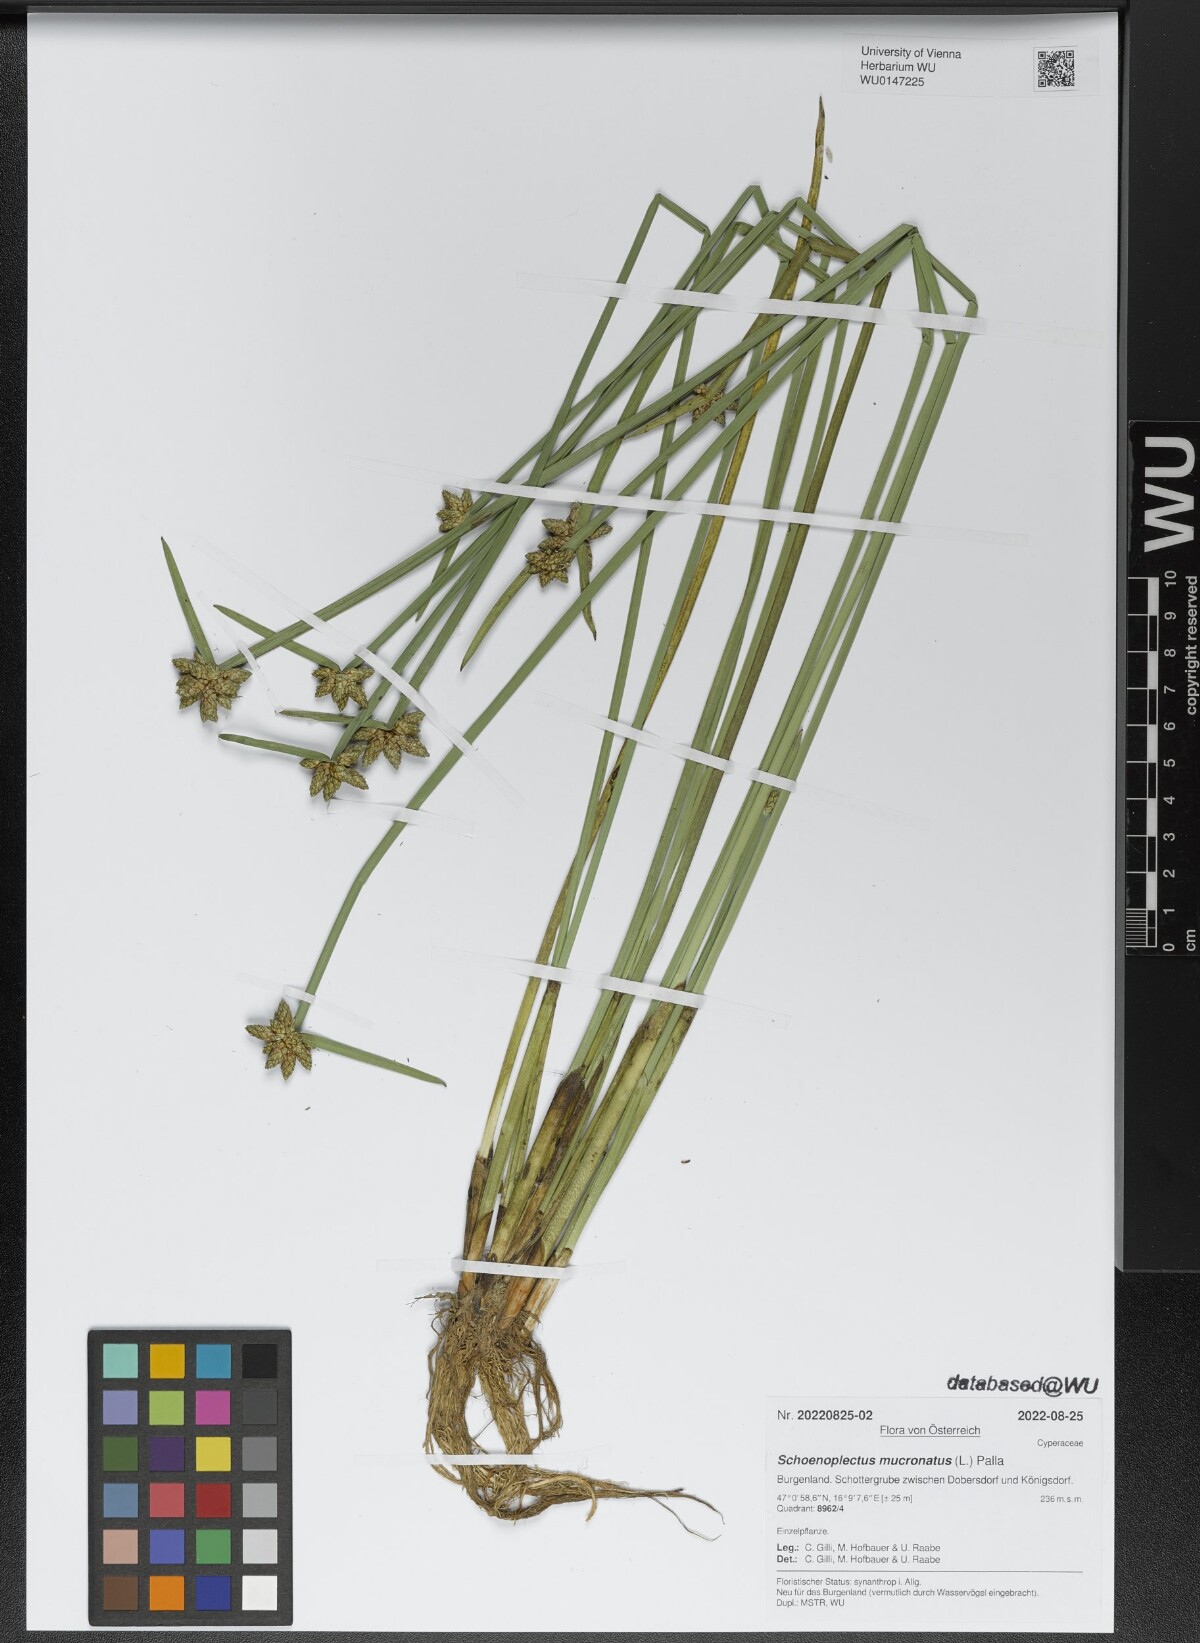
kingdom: Plantae
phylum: Tracheophyta
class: Liliopsida
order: Poales
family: Cyperaceae
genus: Schoenoplectiella
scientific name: Schoenoplectiella mucronata
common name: Bog bulrush
